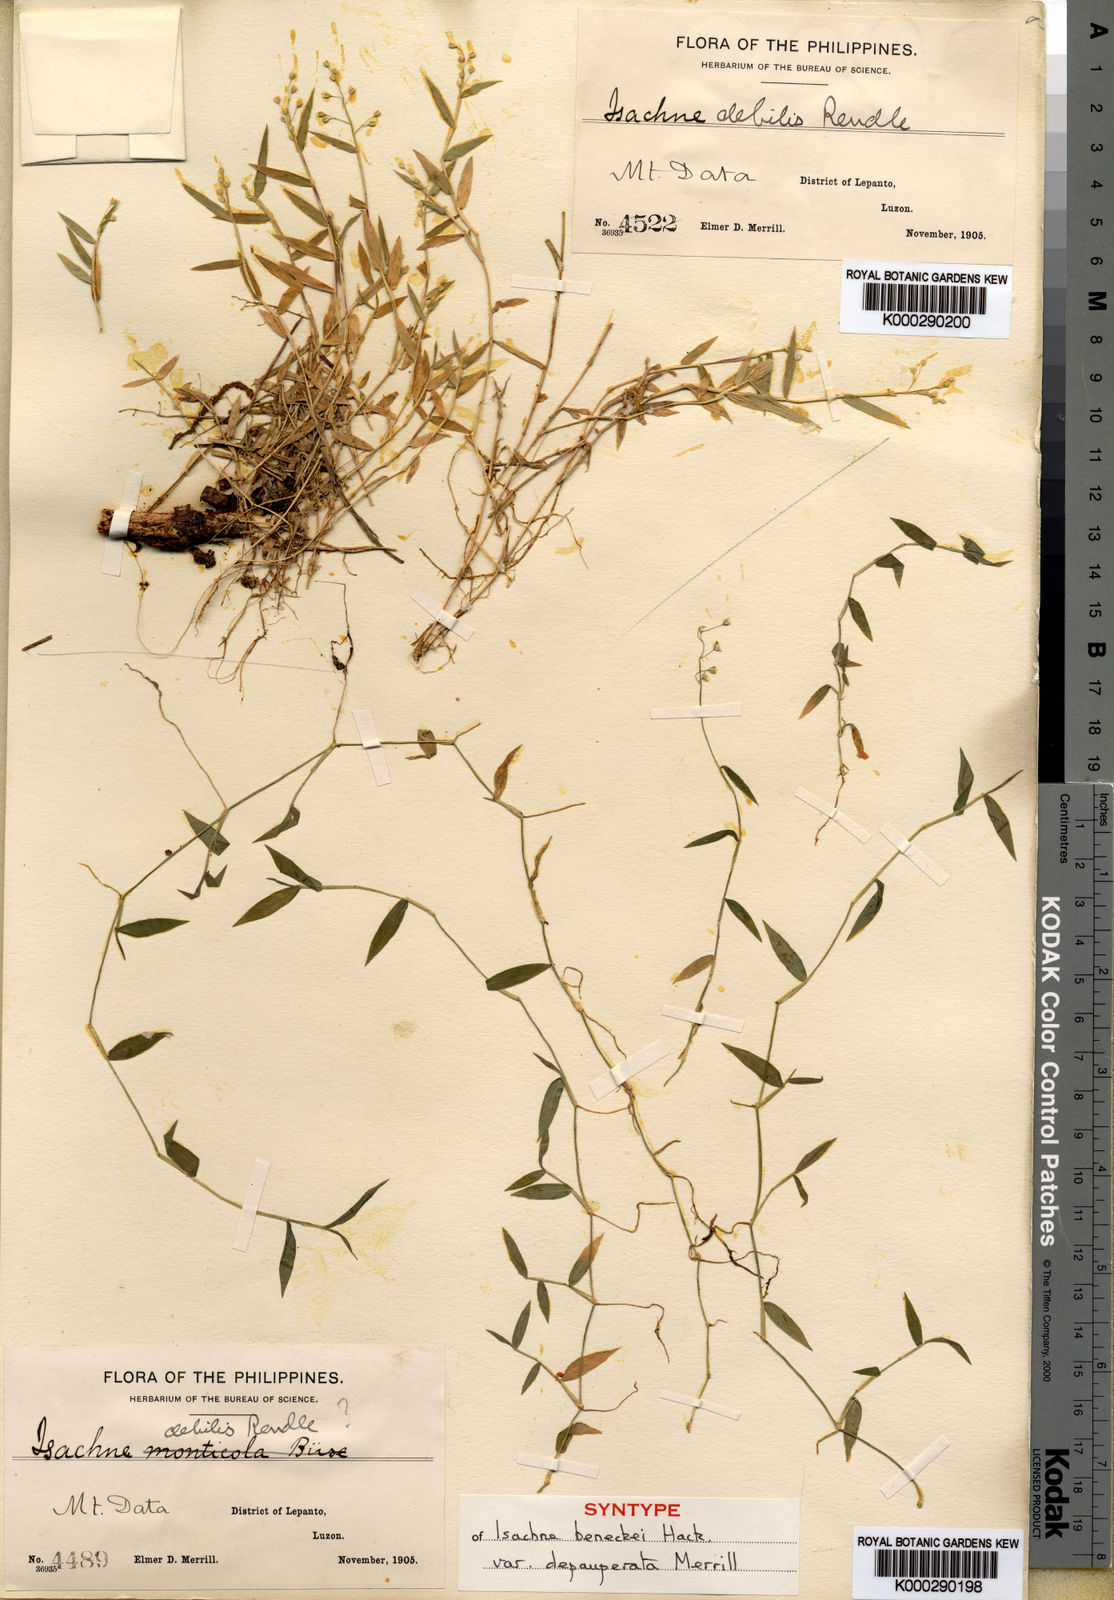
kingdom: Plantae
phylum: Tracheophyta
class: Liliopsida
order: Poales
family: Poaceae
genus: Isachne
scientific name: Isachne myosotis
